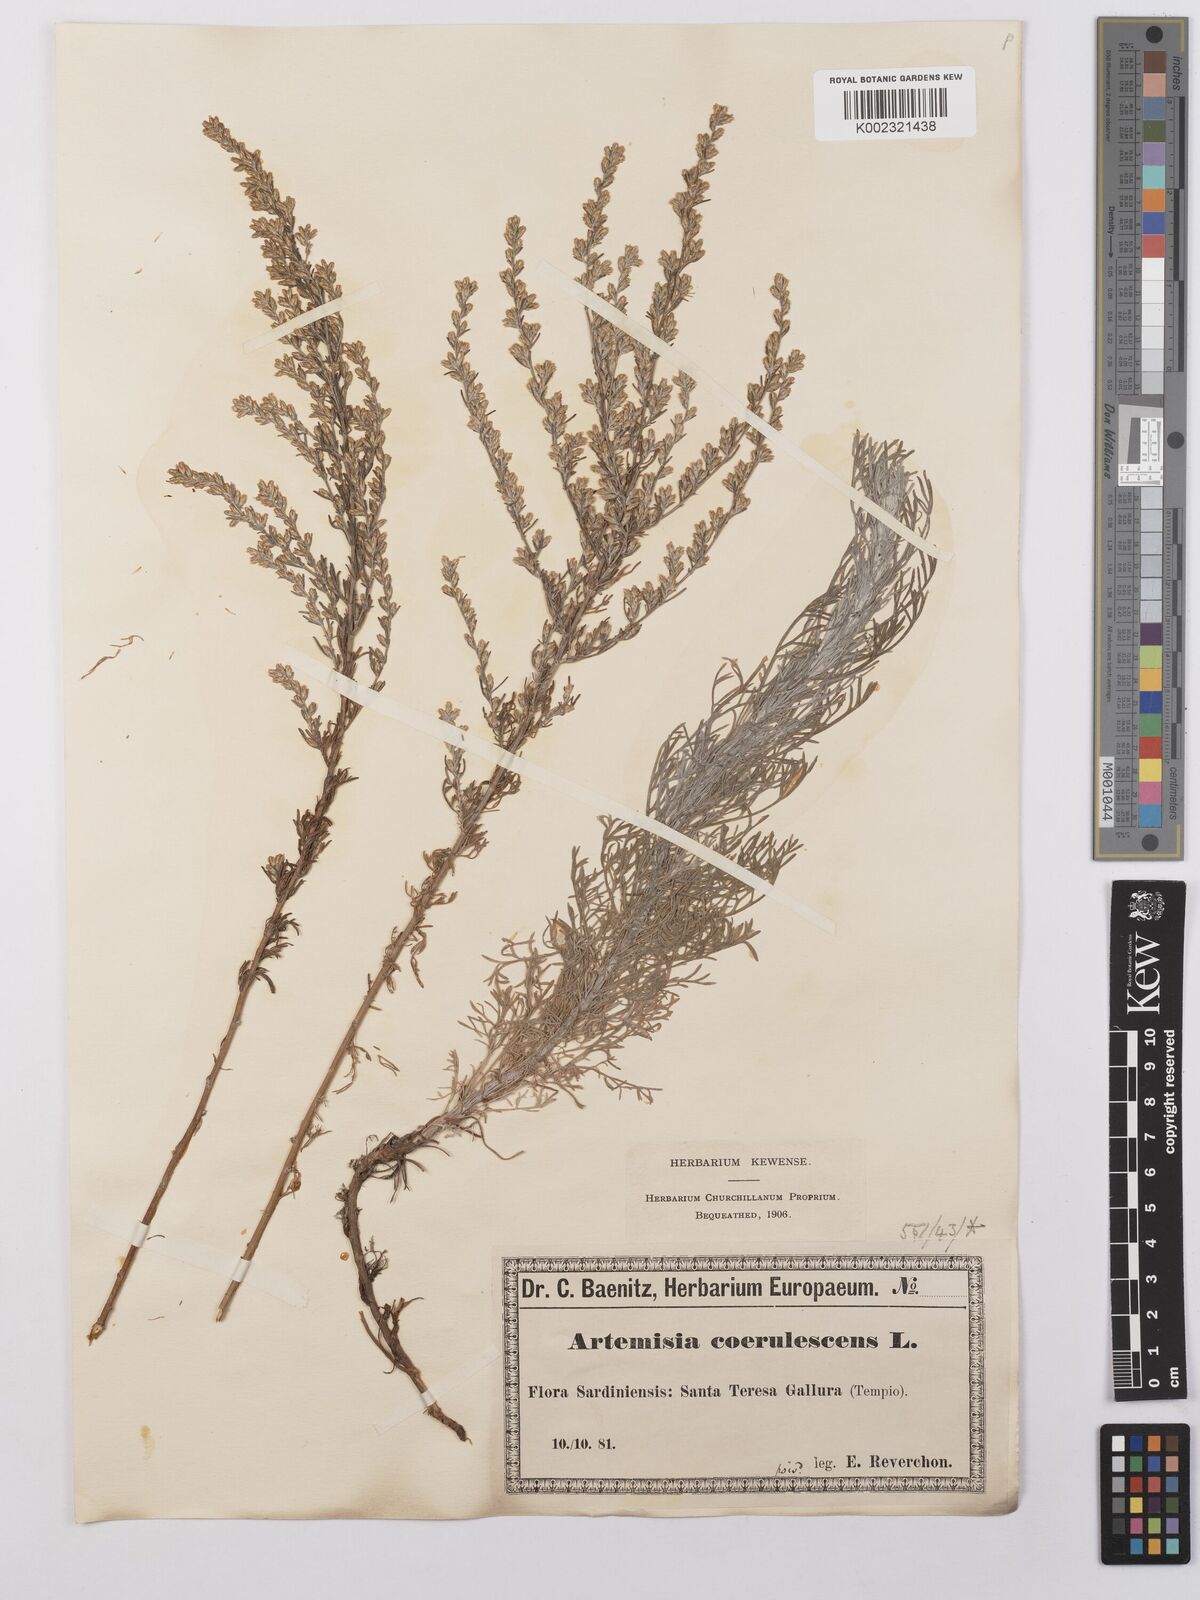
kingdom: Plantae
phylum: Tracheophyta
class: Magnoliopsida
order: Asterales
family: Asteraceae
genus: Artemisia
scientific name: Artemisia caerulescens
